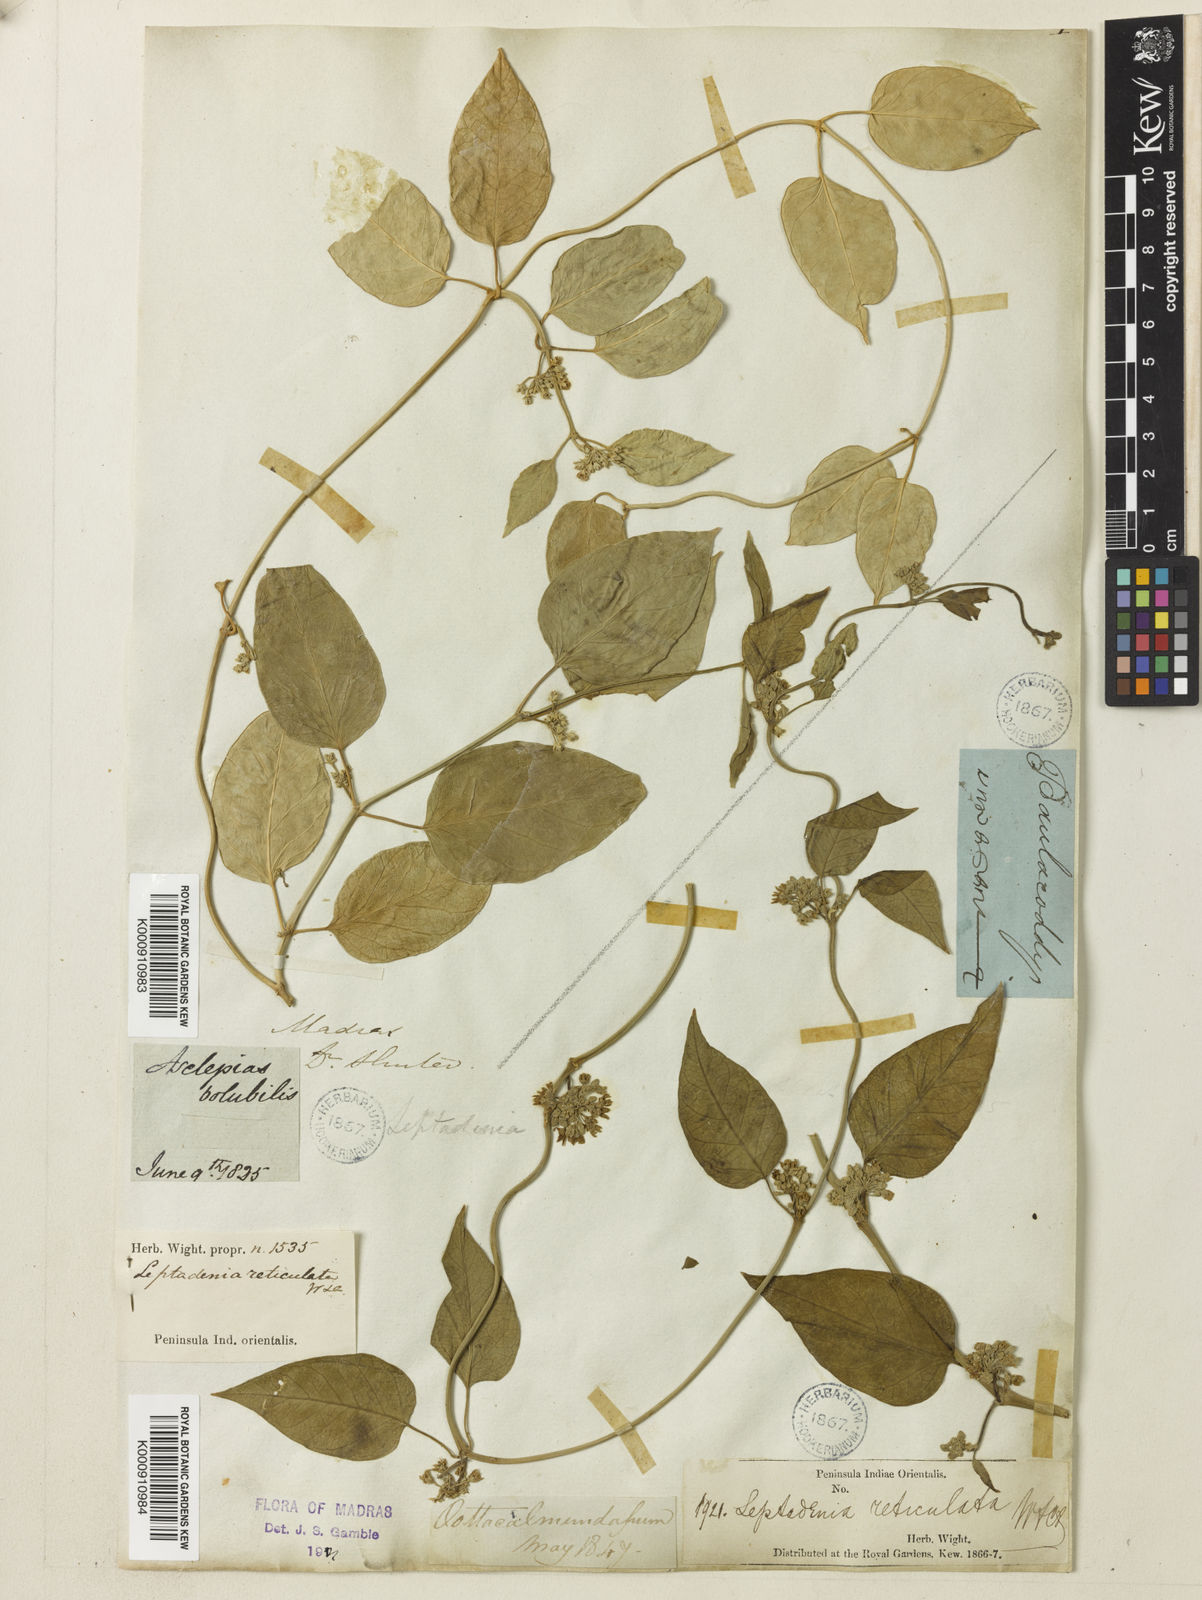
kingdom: Plantae
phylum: Tracheophyta
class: Magnoliopsida
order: Gentianales
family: Apocynaceae
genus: Leptadenia
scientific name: Leptadenia reticulata
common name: Leptadenia
